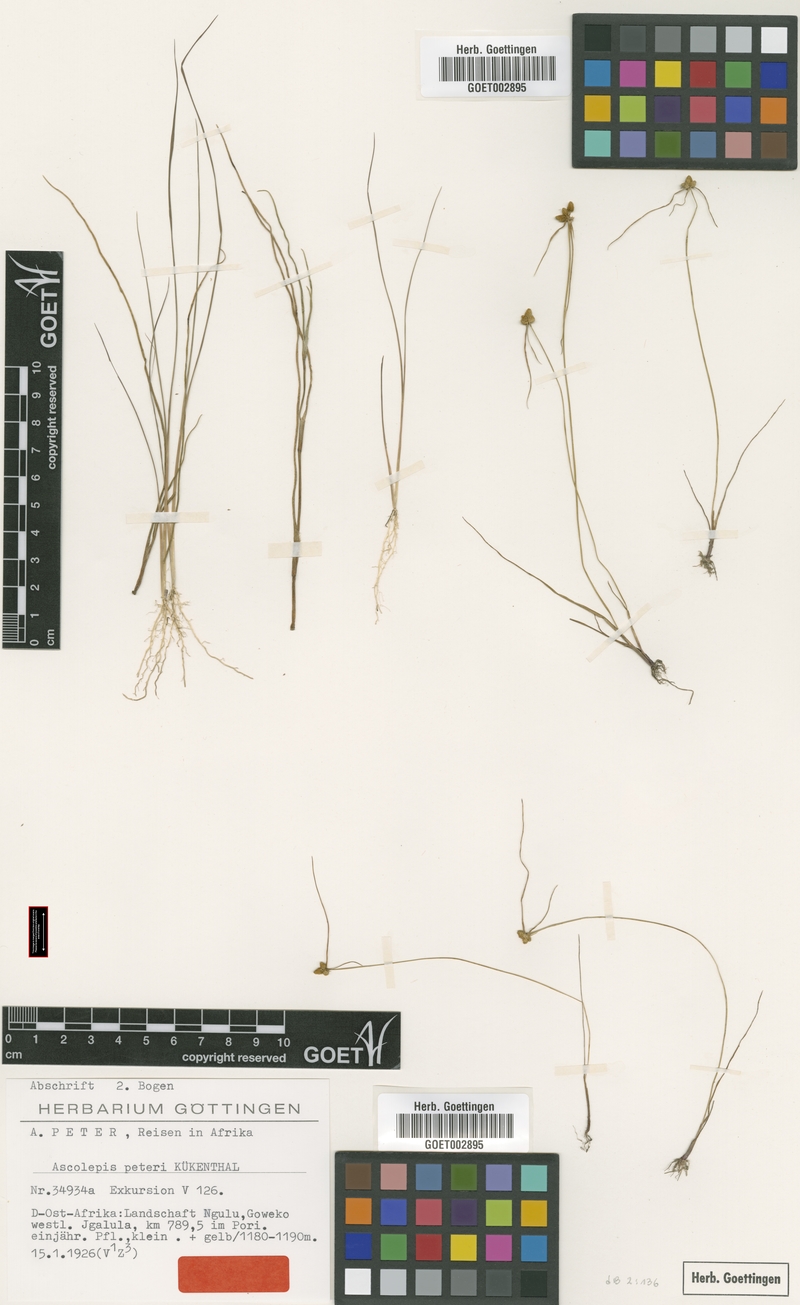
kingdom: Plantae
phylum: Tracheophyta
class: Liliopsida
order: Poales
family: Cyperaceae
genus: Cyperus
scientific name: Cyperus microaureus
